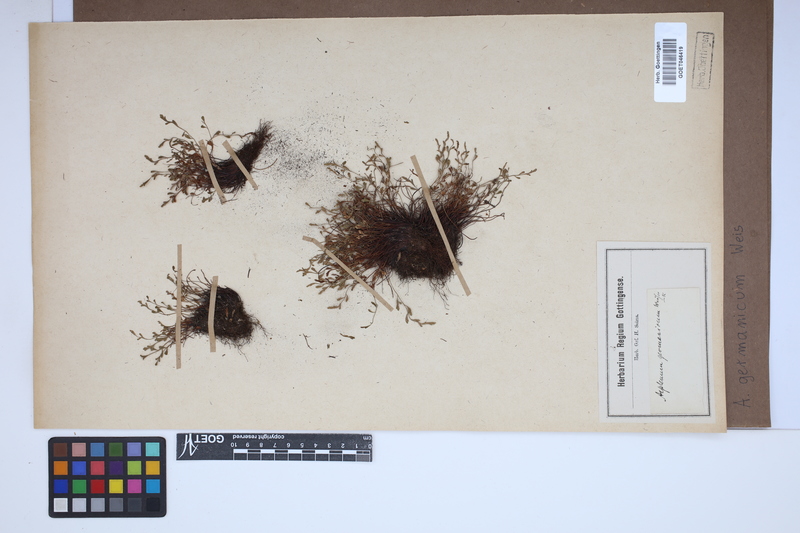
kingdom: Plantae
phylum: Tracheophyta
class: Polypodiopsida
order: Polypodiales
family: Aspleniaceae
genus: Asplenium
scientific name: Asplenium
